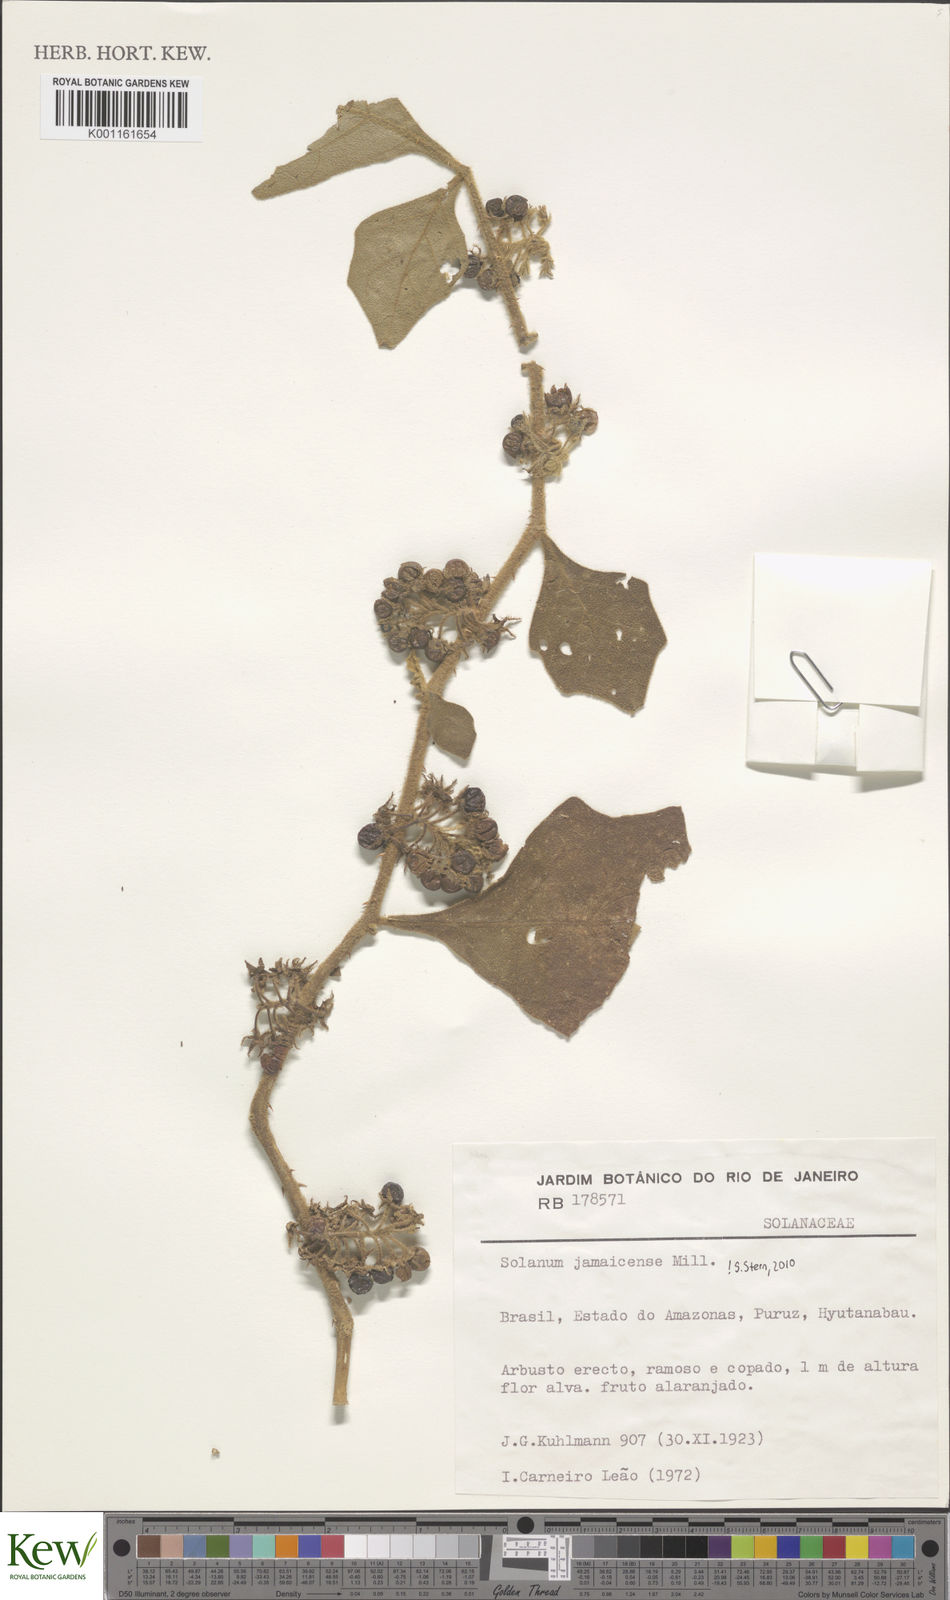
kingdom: Plantae
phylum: Tracheophyta
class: Magnoliopsida
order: Solanales
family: Solanaceae
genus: Solanum
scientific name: Solanum jamaicense
